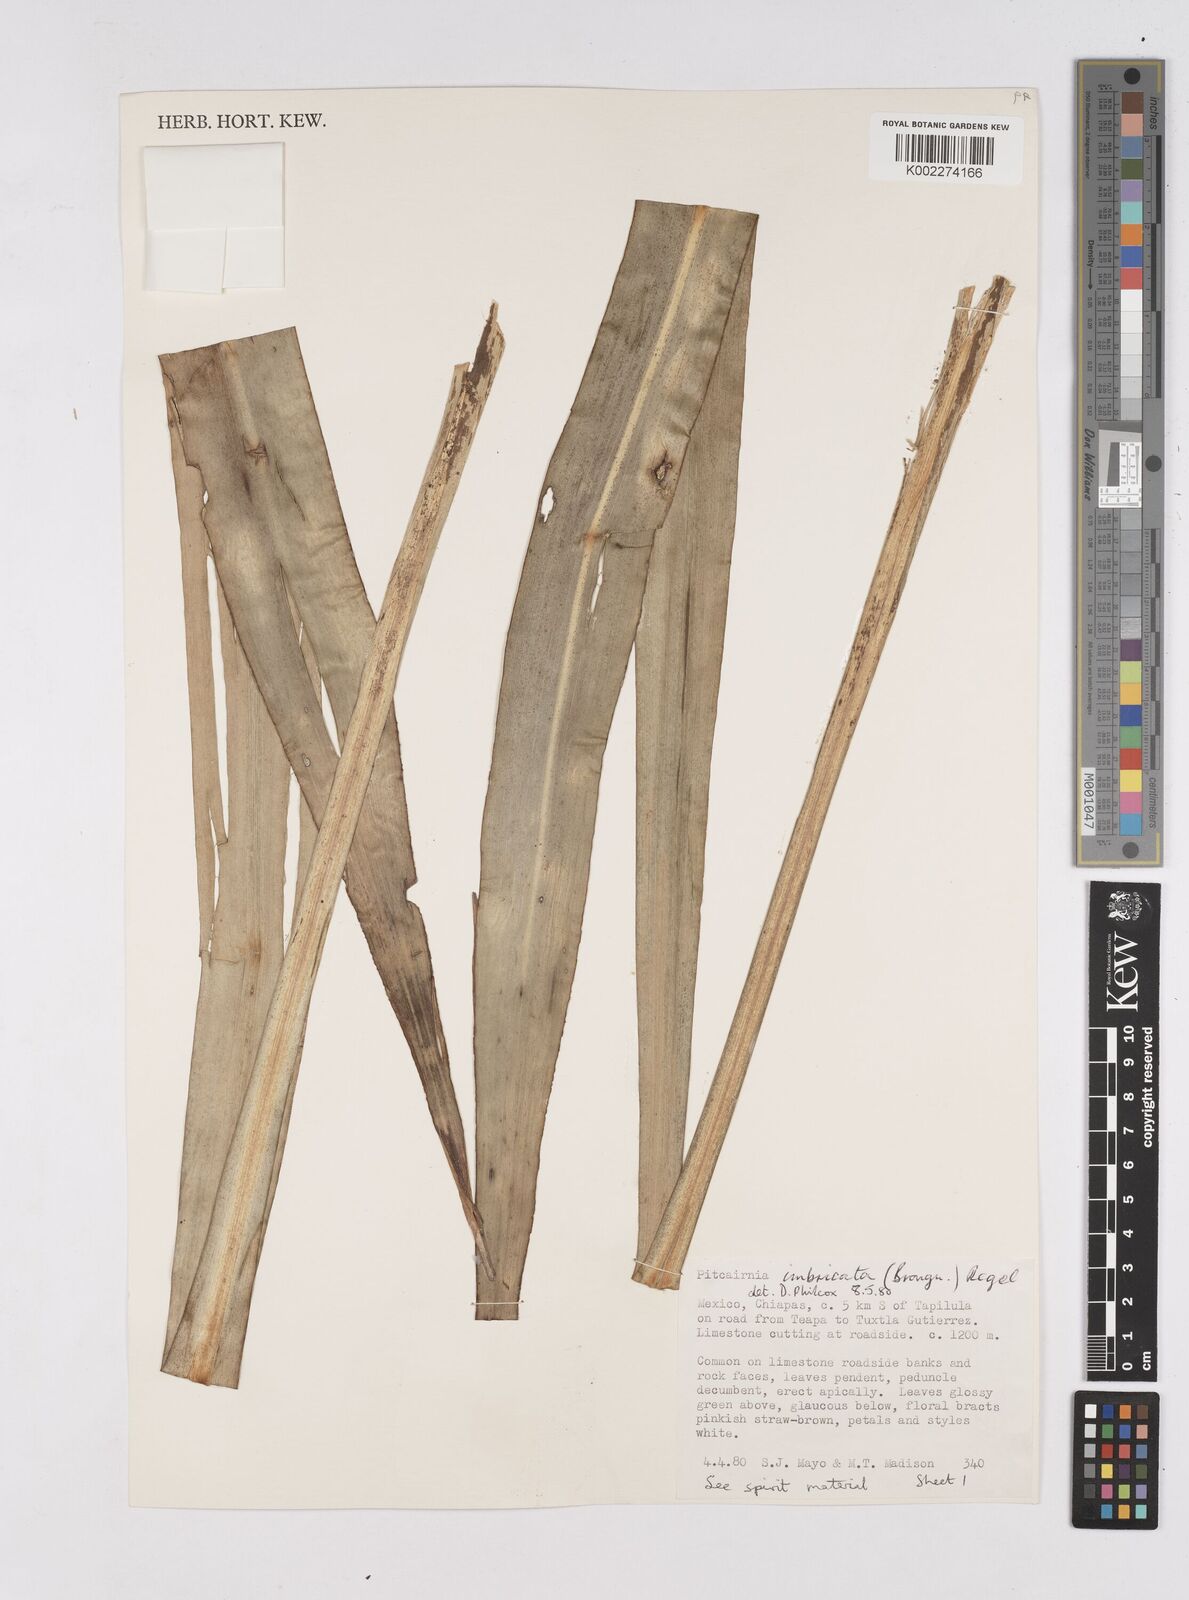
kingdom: Plantae
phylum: Tracheophyta
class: Liliopsida
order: Poales
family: Bromeliaceae
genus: Pitcairnia
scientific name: Pitcairnia imbricata
